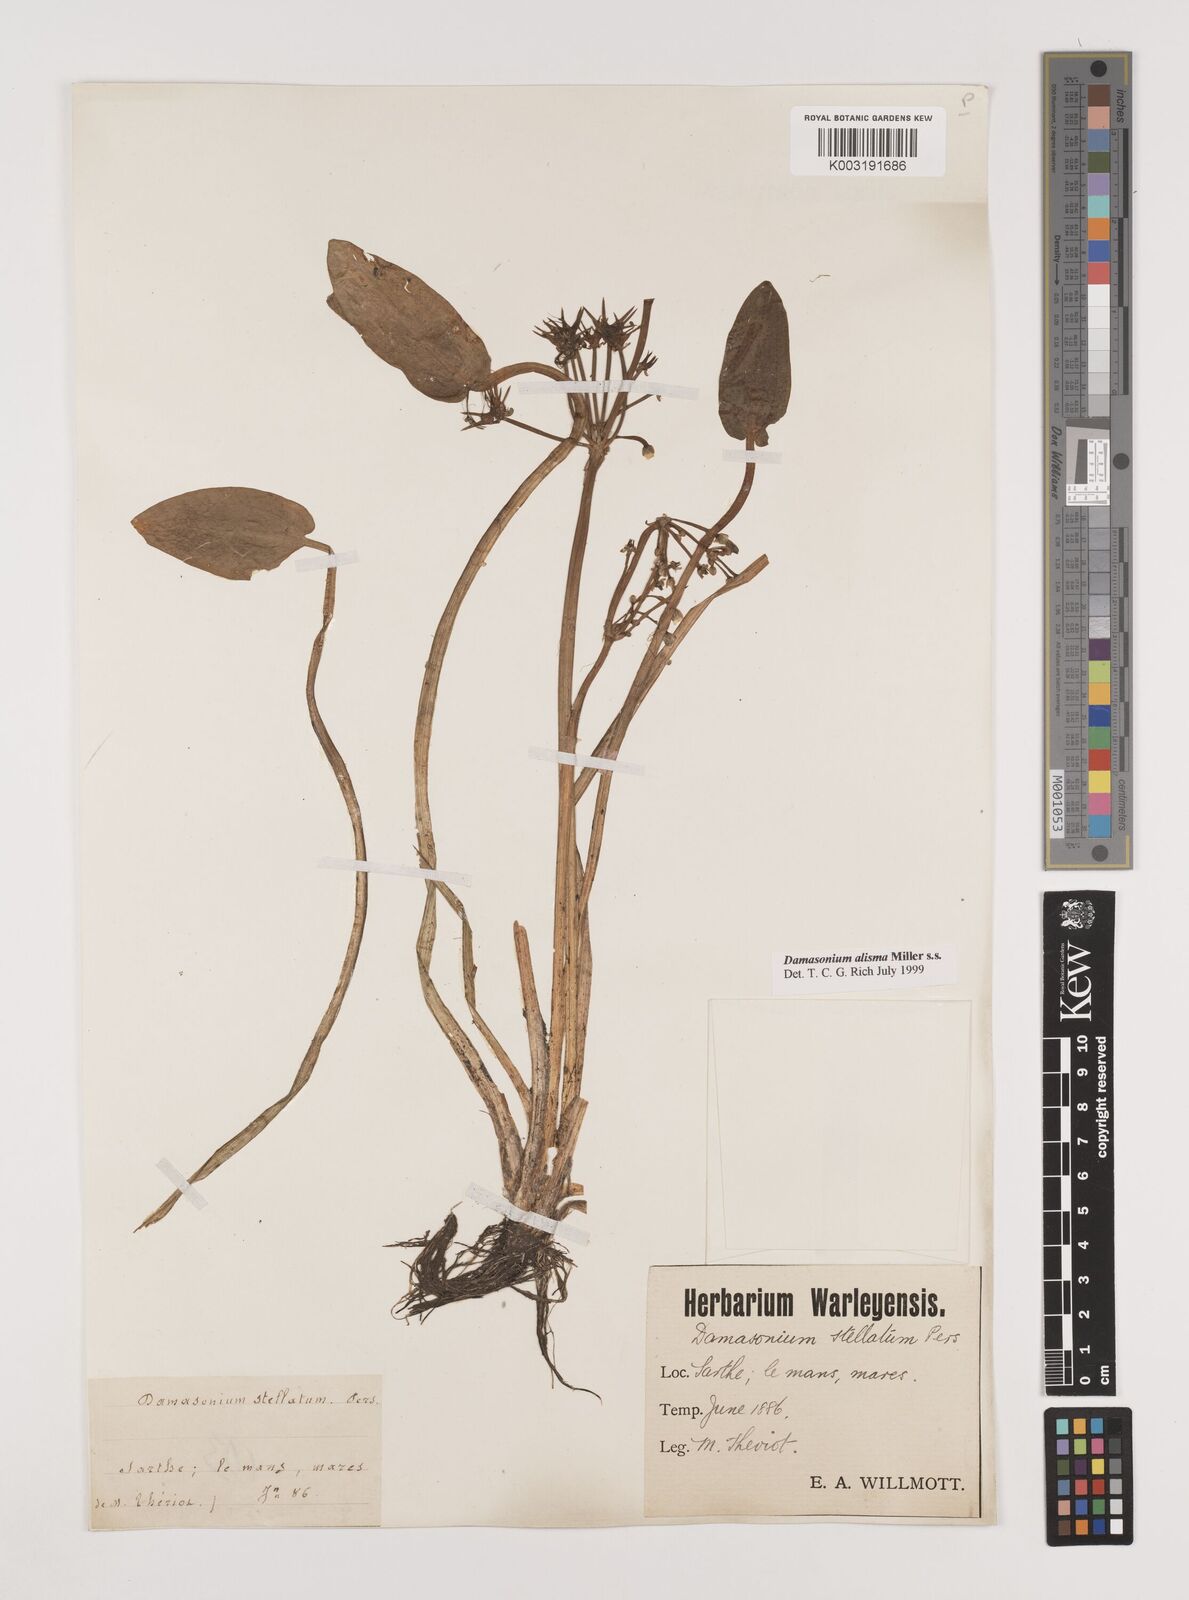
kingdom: Plantae
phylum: Tracheophyta
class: Liliopsida
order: Alismatales
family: Alismataceae
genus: Damasonium
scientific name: Damasonium alisma
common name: Starfruit
